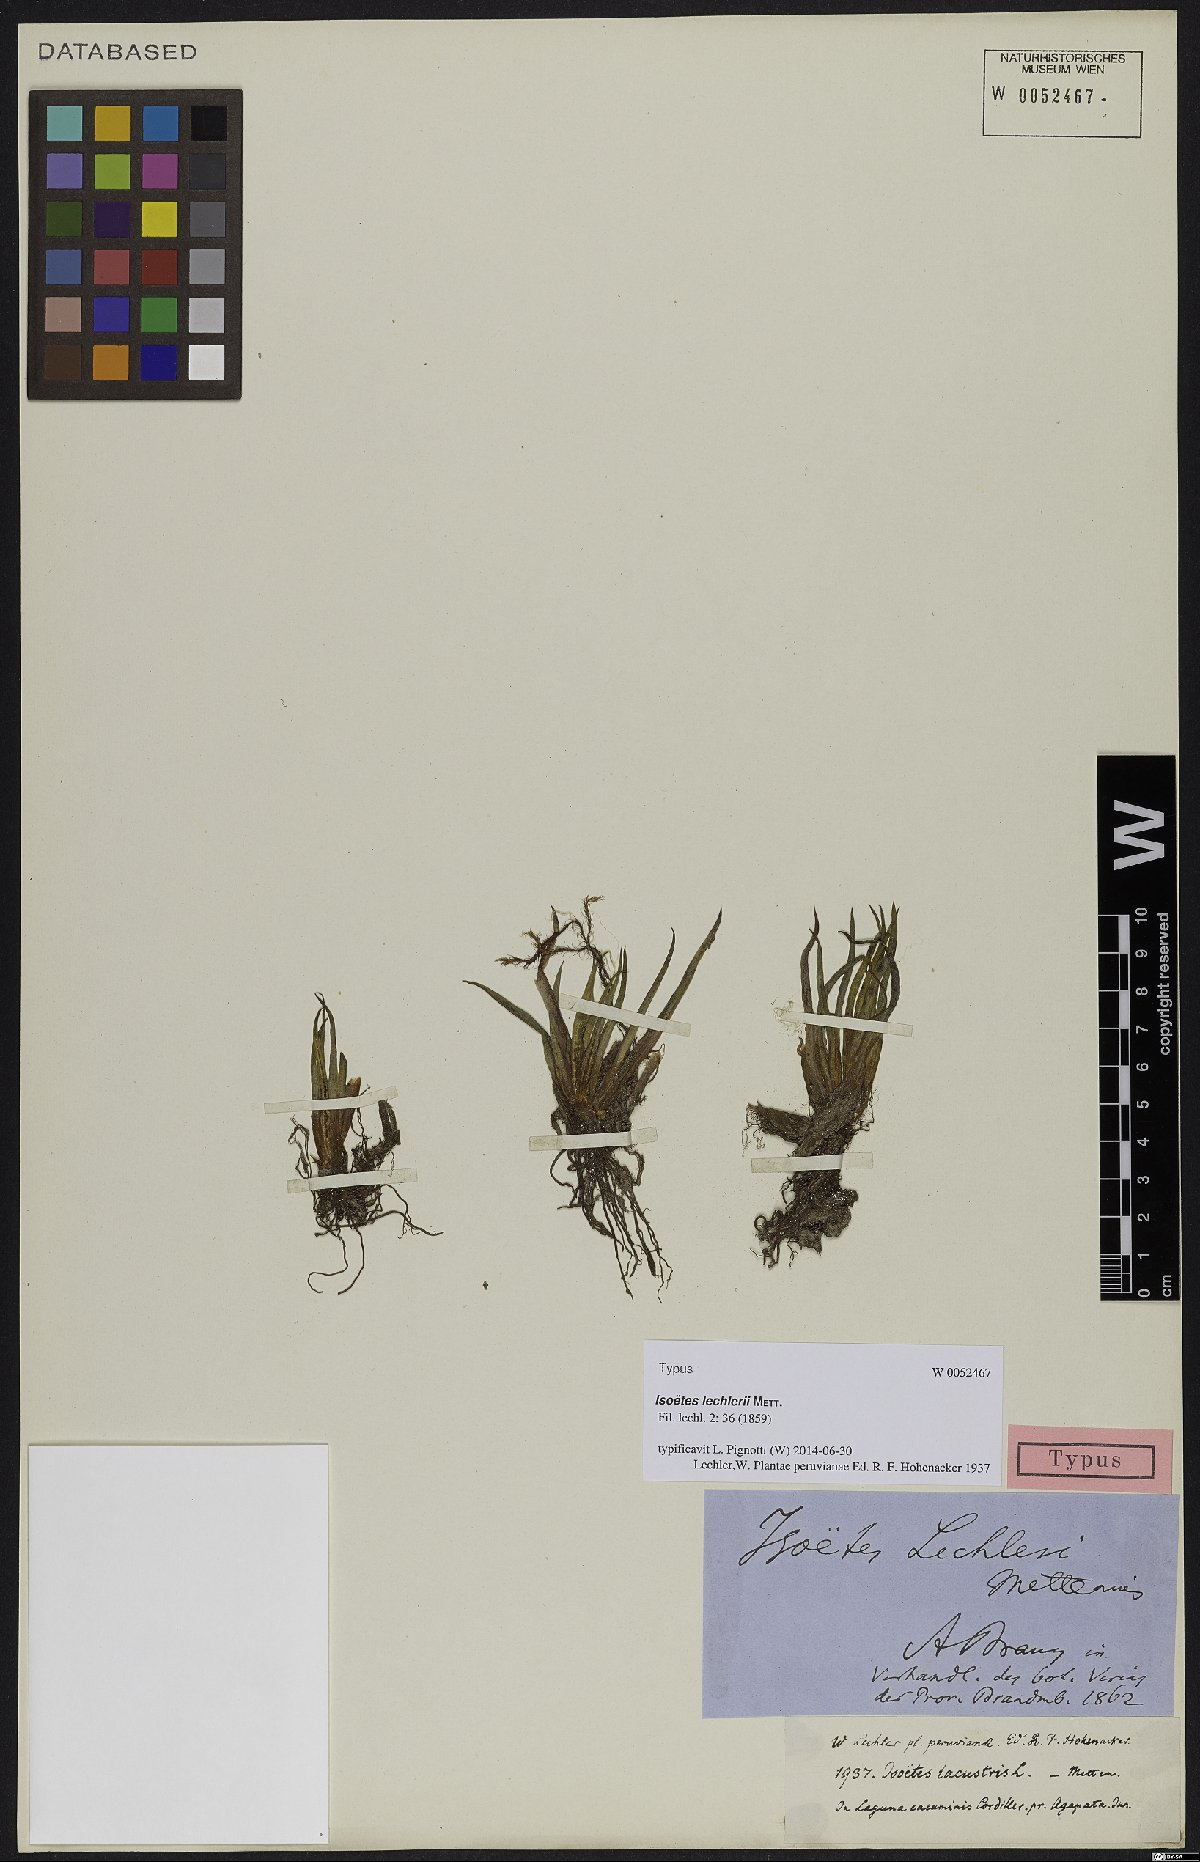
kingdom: Plantae
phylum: Tracheophyta
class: Lycopodiopsida
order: Isoetales
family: Isoetaceae
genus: Isoetes
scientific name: Isoetes lechleri
